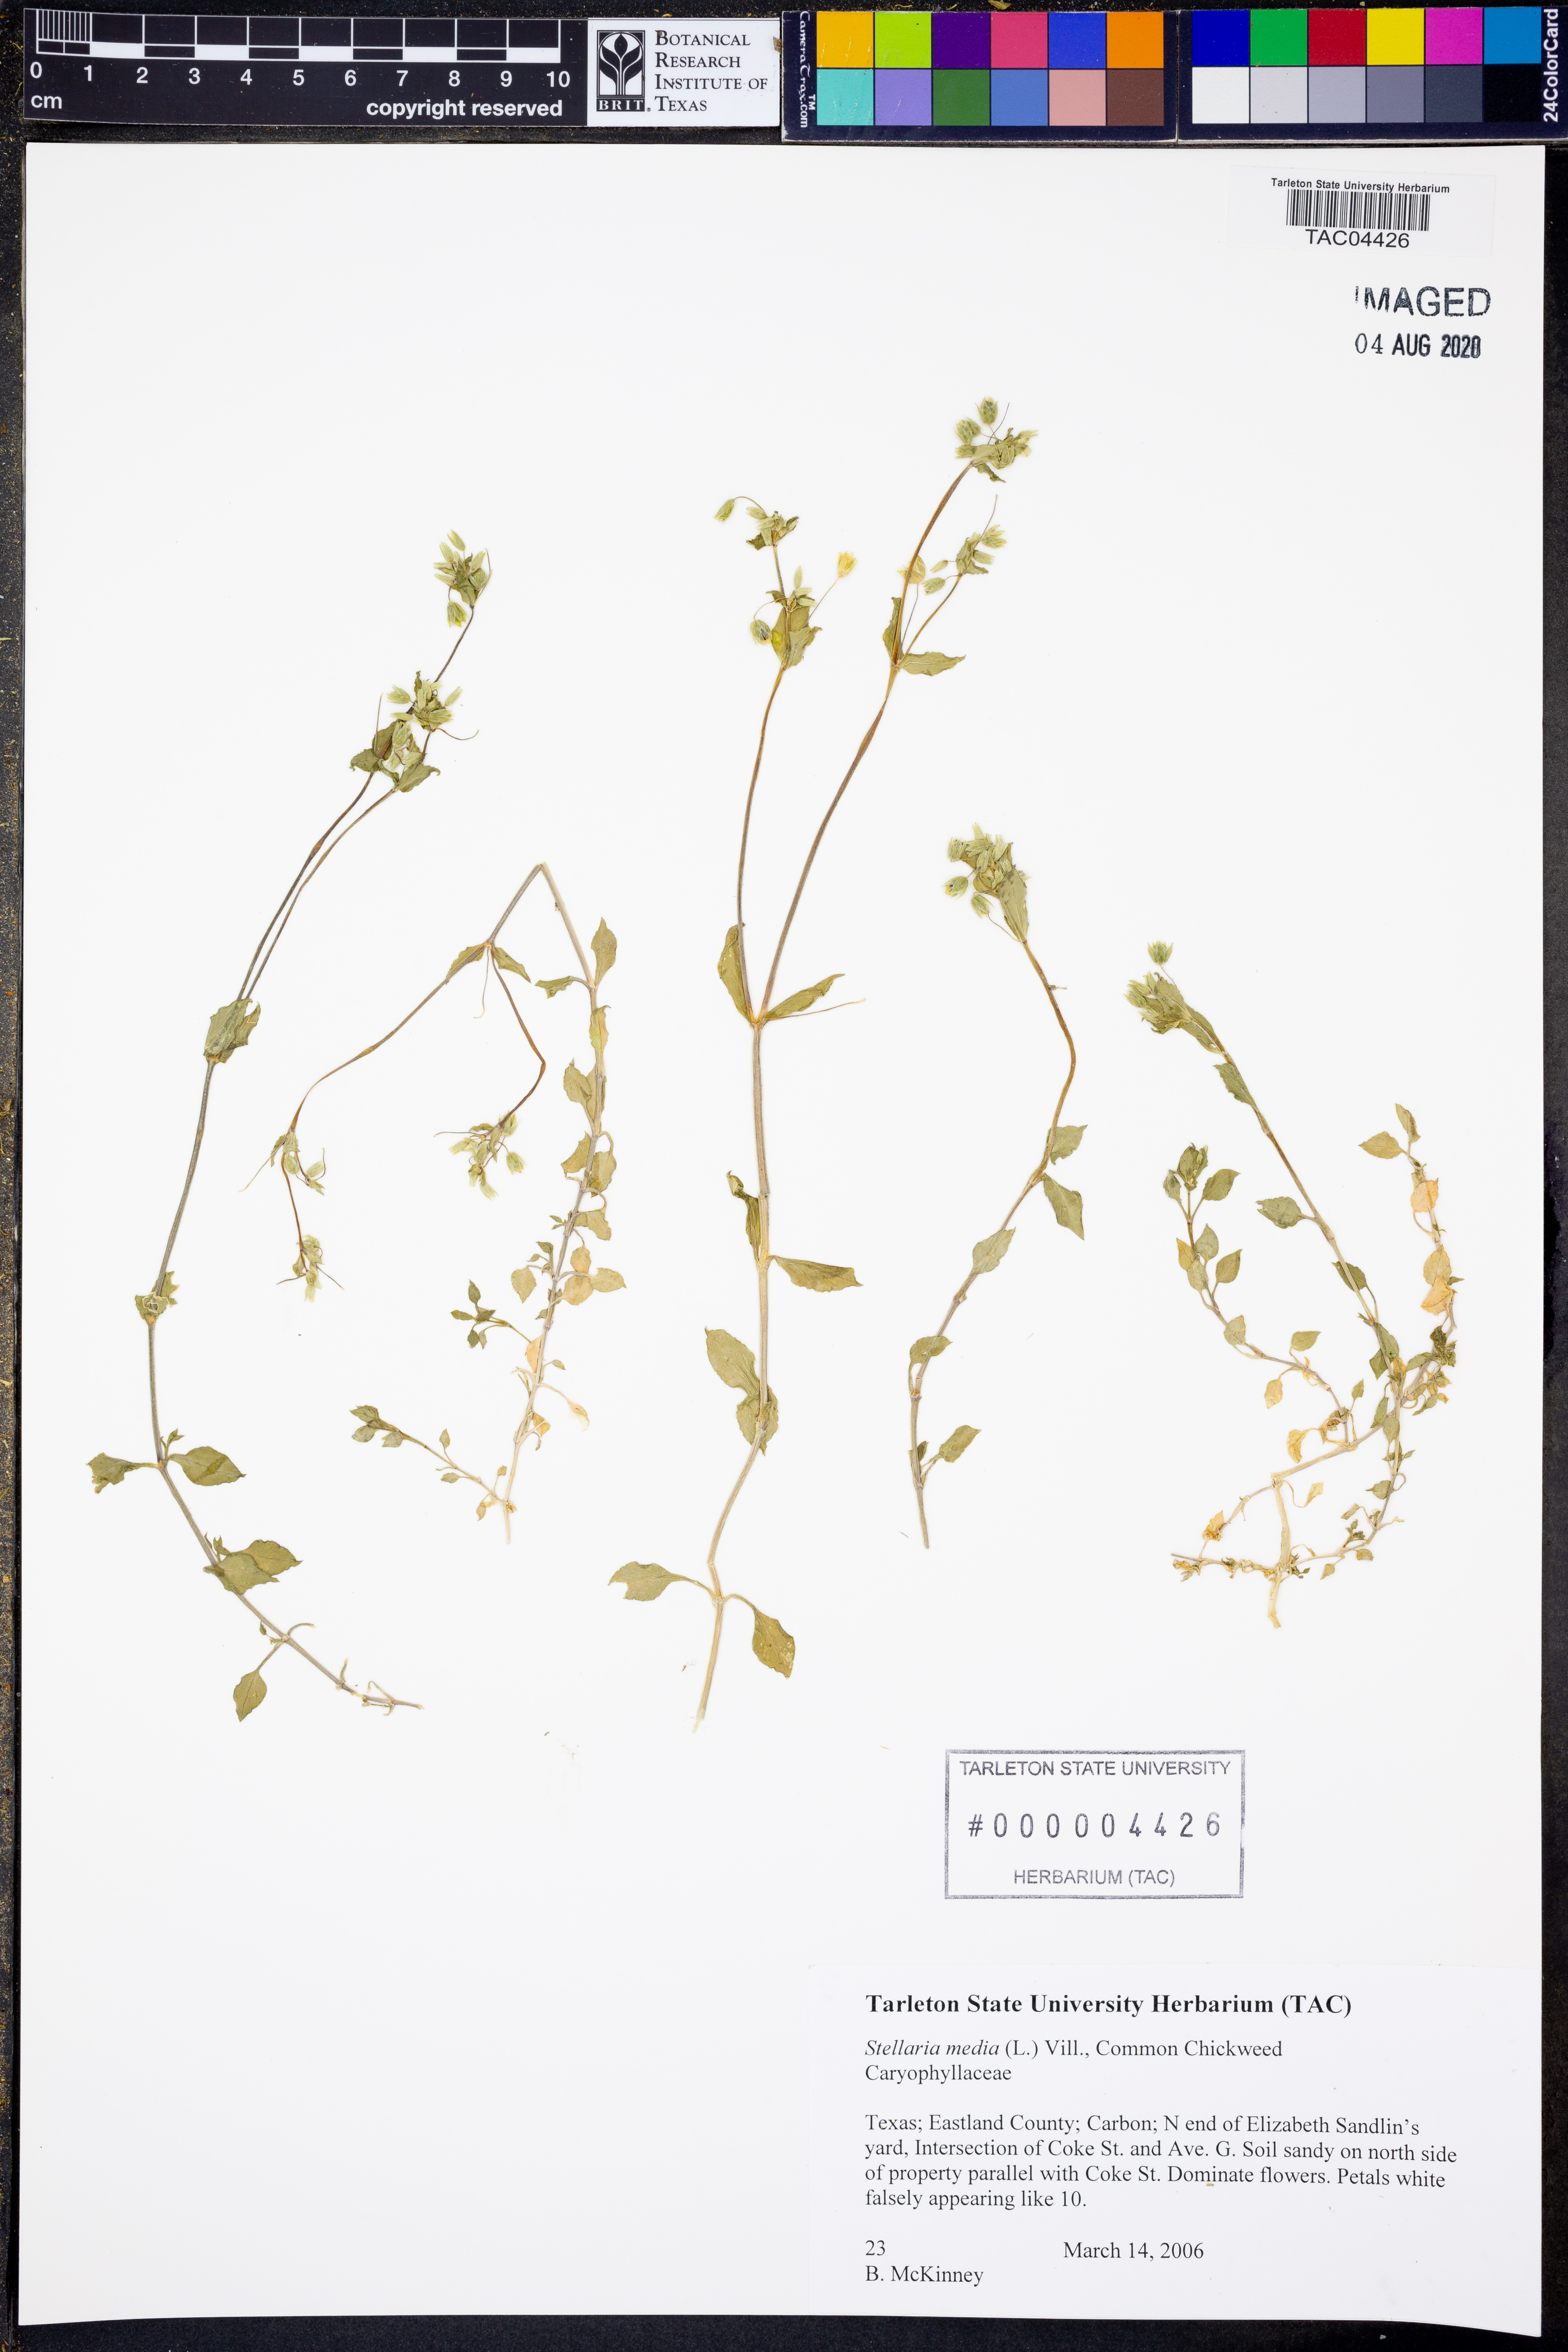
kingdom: Plantae
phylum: Tracheophyta
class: Magnoliopsida
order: Caryophyllales
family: Caryophyllaceae
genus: Stellaria
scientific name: Stellaria media
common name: Common chickweed
